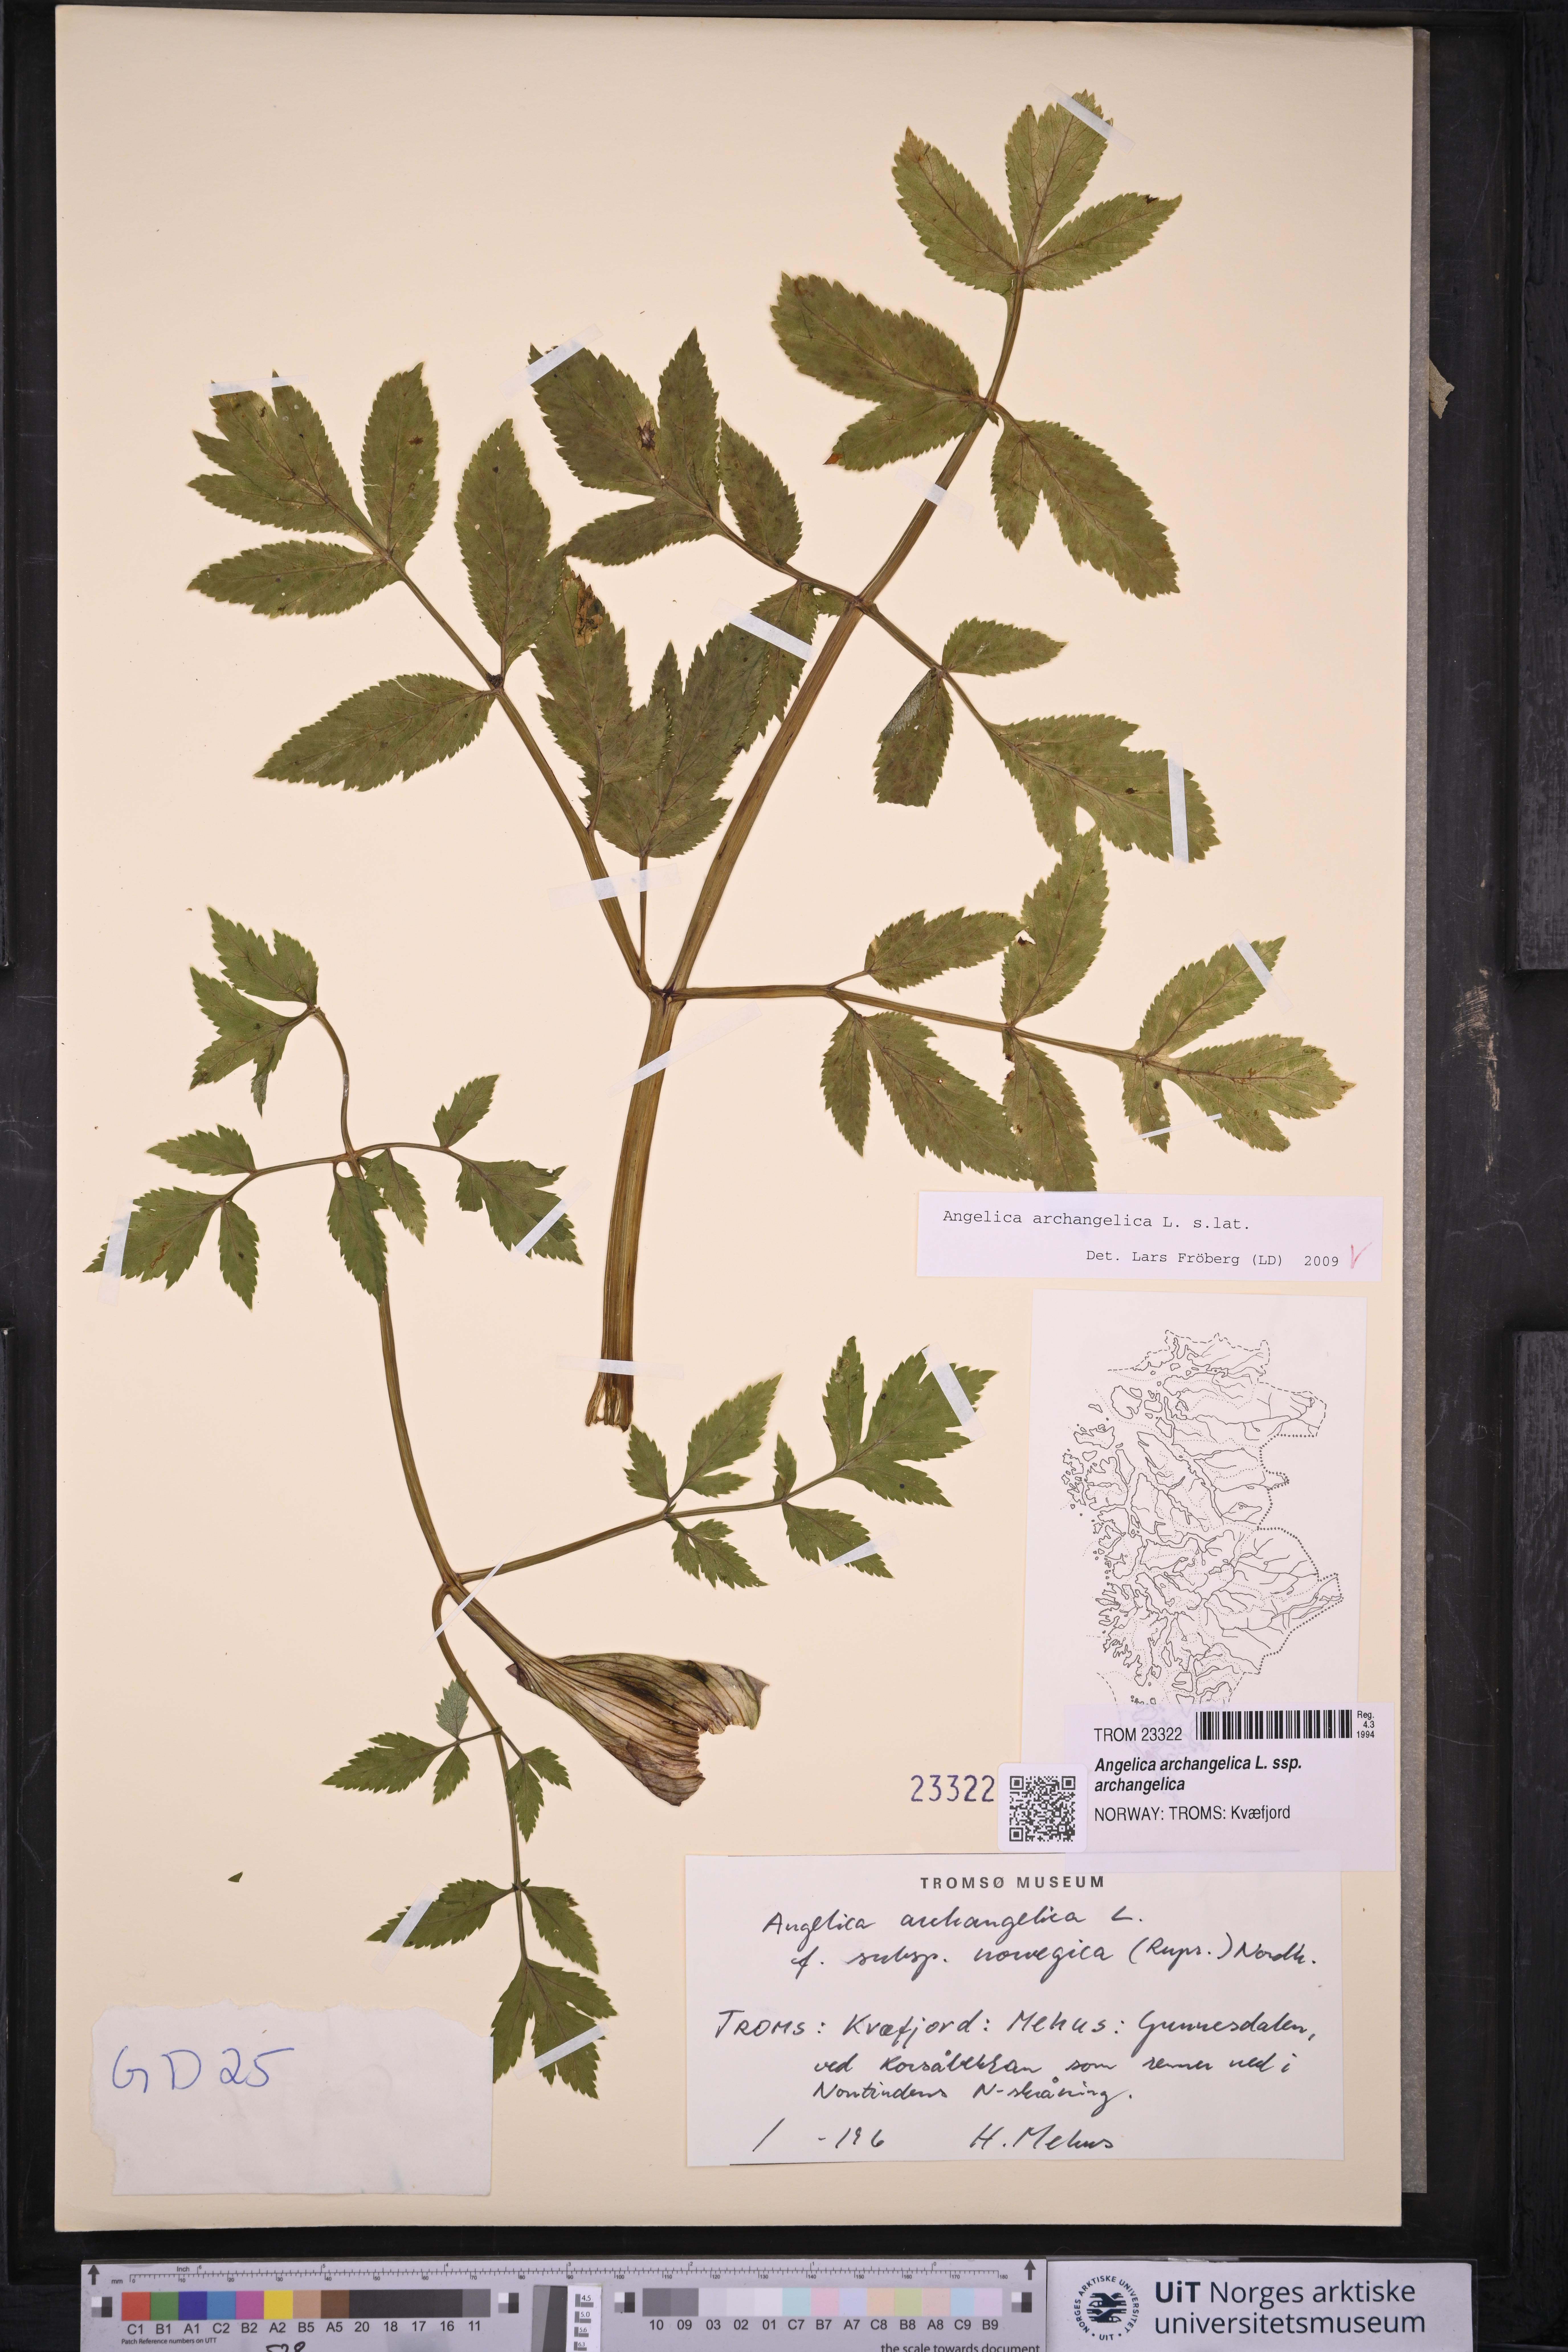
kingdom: Plantae
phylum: Tracheophyta
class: Magnoliopsida
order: Apiales
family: Apiaceae
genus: Angelica
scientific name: Angelica archangelica
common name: Garden angelica
